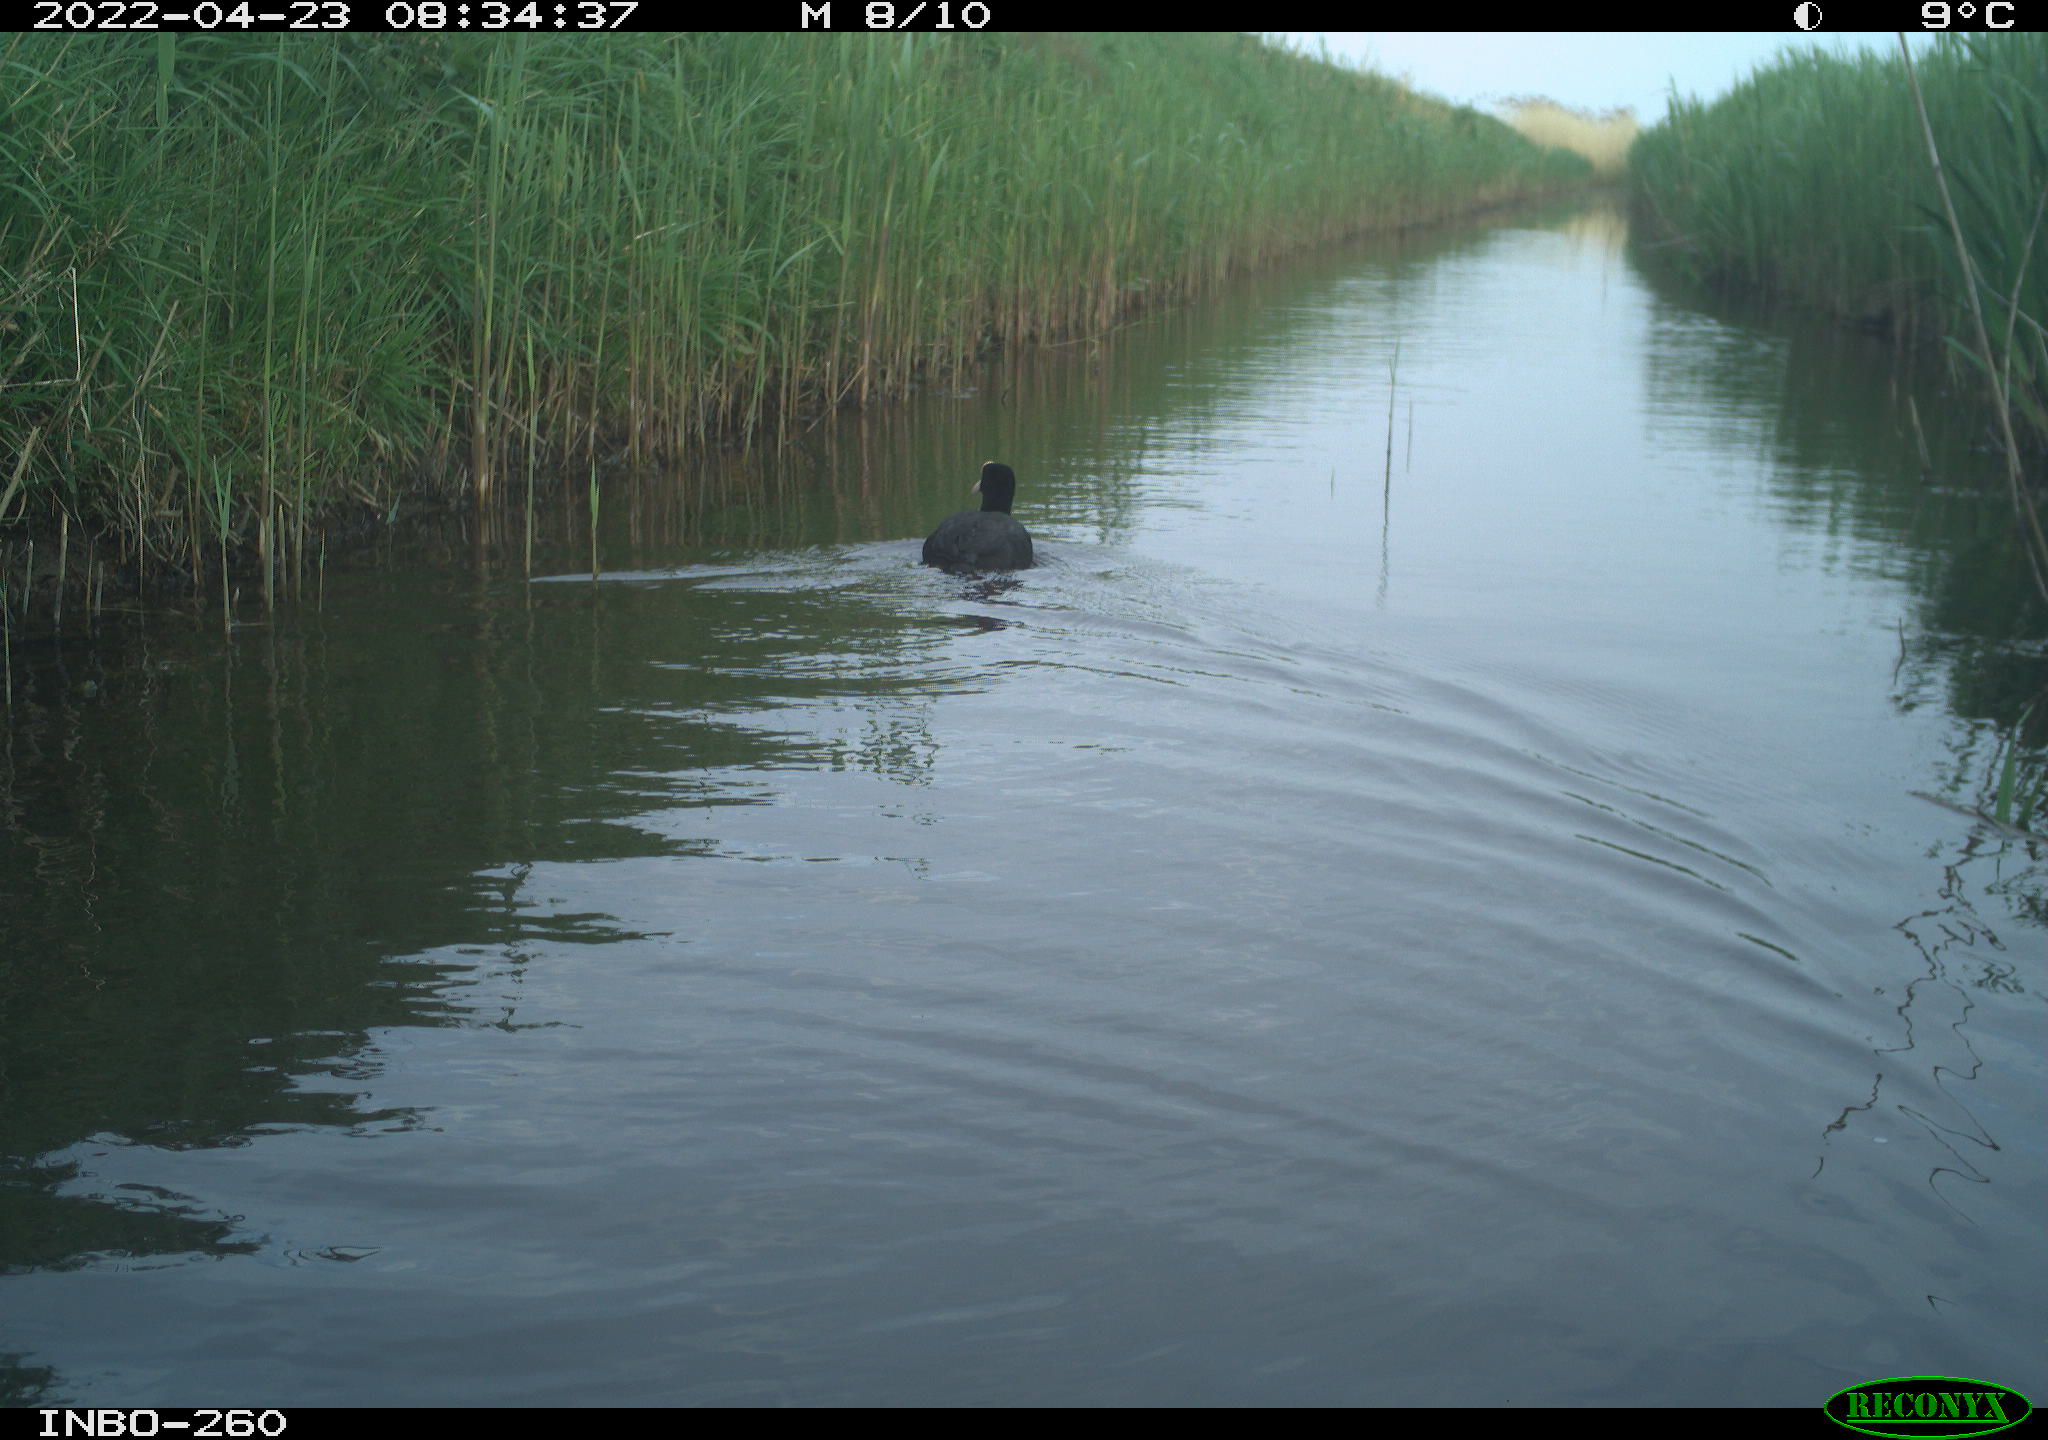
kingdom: Animalia
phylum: Chordata
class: Aves
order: Gruiformes
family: Rallidae
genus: Fulica
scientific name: Fulica atra
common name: Eurasian coot
